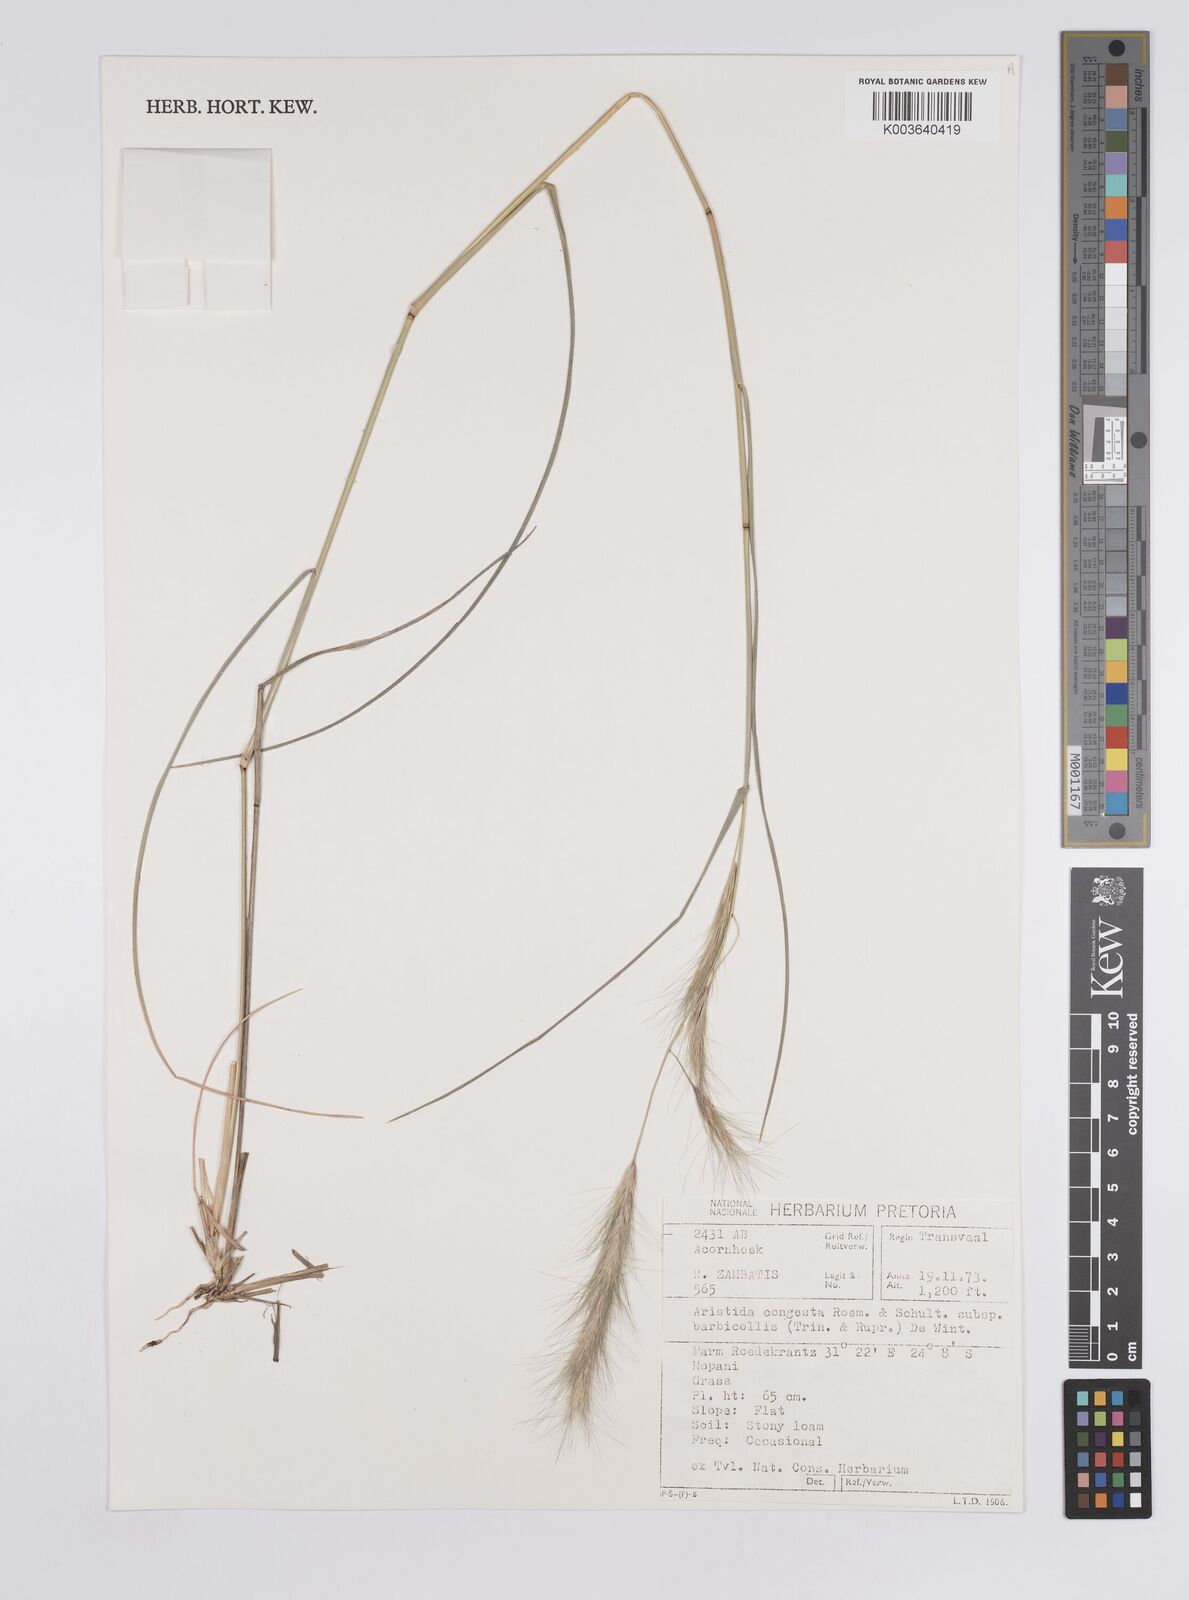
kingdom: Plantae
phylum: Tracheophyta
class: Liliopsida
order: Poales
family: Poaceae
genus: Aristida
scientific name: Aristida barbicollis
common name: Spreading prickle grass
